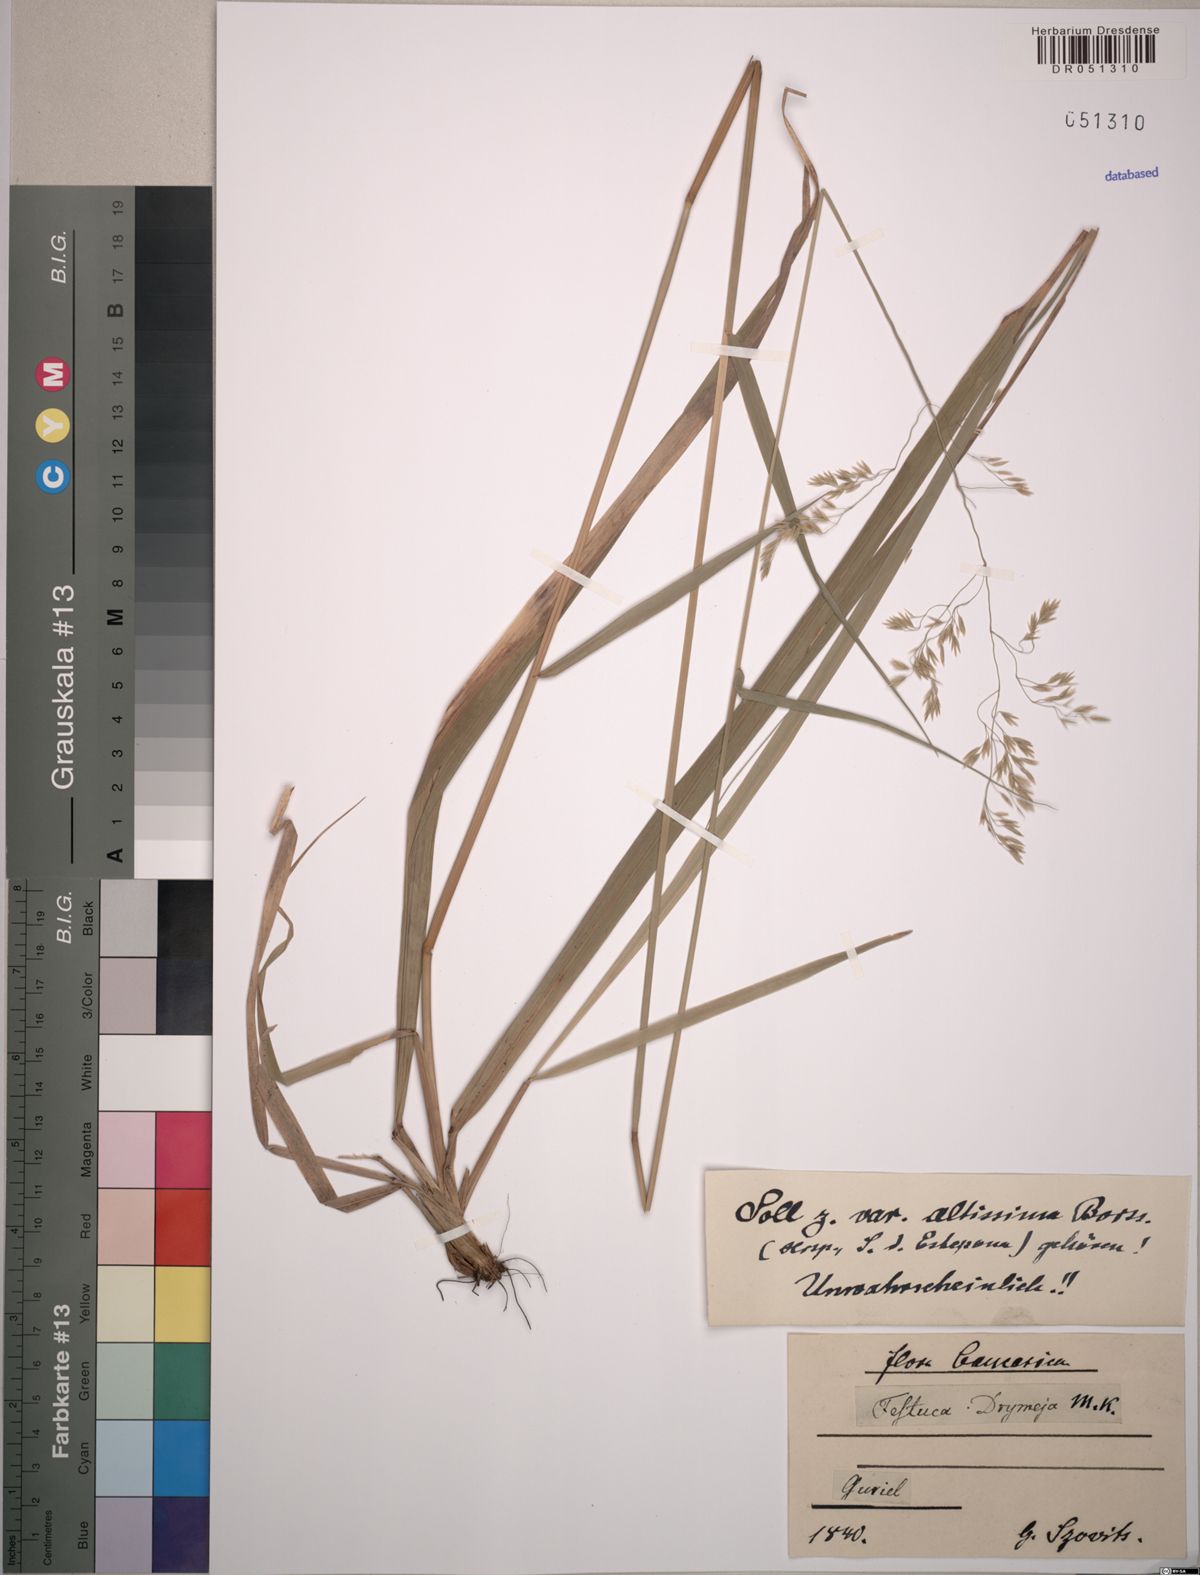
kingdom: Plantae
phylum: Tracheophyta
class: Liliopsida
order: Poales
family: Poaceae
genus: Festuca
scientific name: Festuca drymeja
